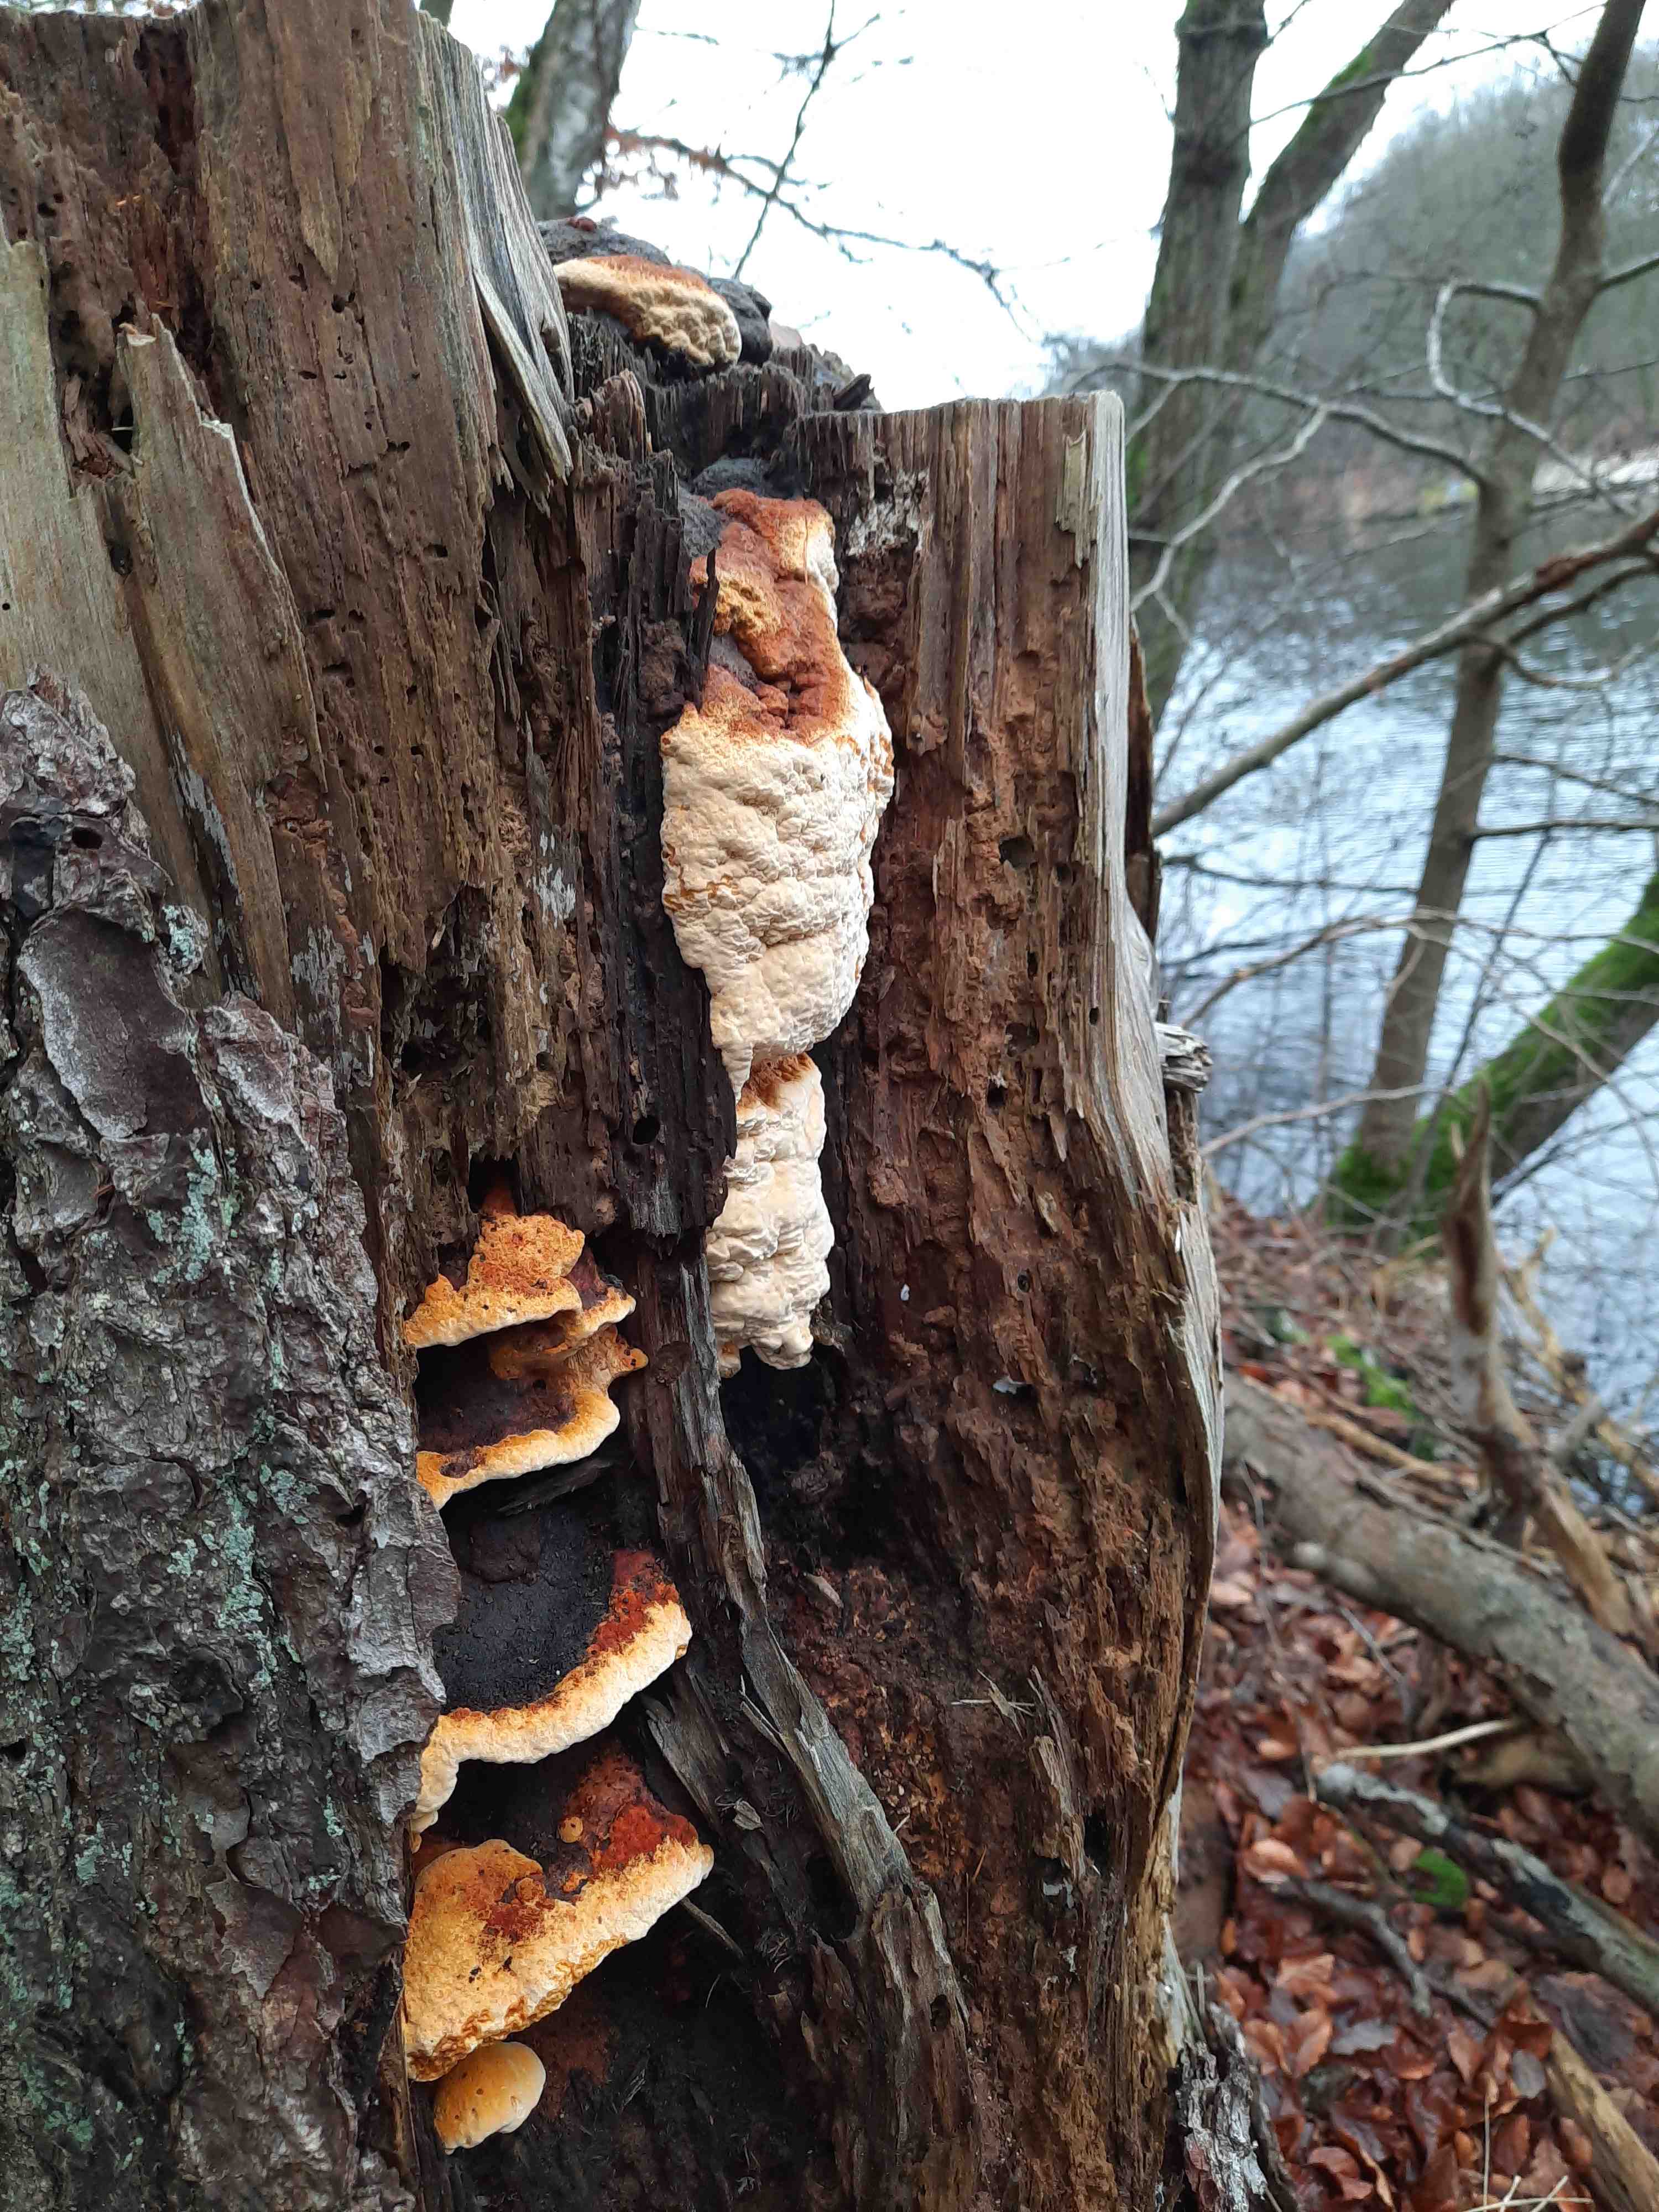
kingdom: Fungi
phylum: Basidiomycota
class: Agaricomycetes
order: Gloeophyllales
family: Gloeophyllaceae
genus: Gloeophyllum
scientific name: Gloeophyllum odoratum
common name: duftende korkhat
